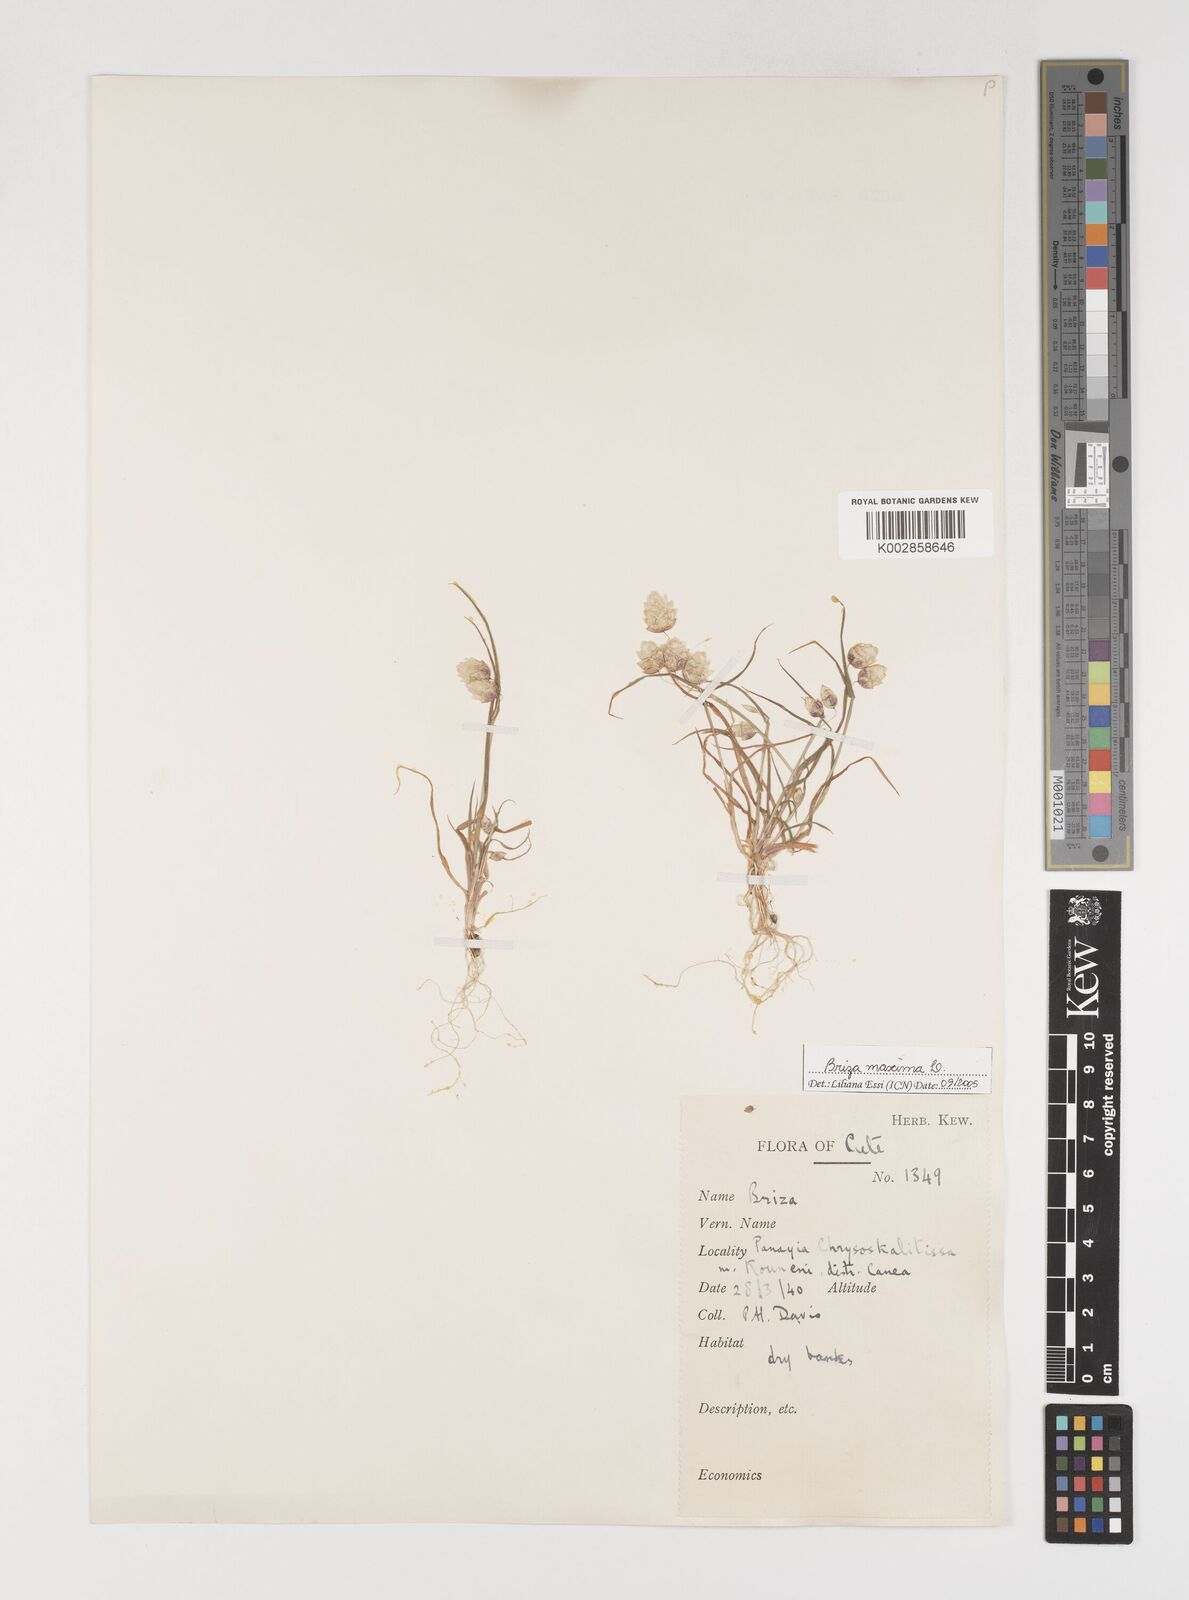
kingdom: Plantae
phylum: Tracheophyta
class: Liliopsida
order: Poales
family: Poaceae
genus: Briza
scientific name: Briza maxima
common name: Big quakinggrass
